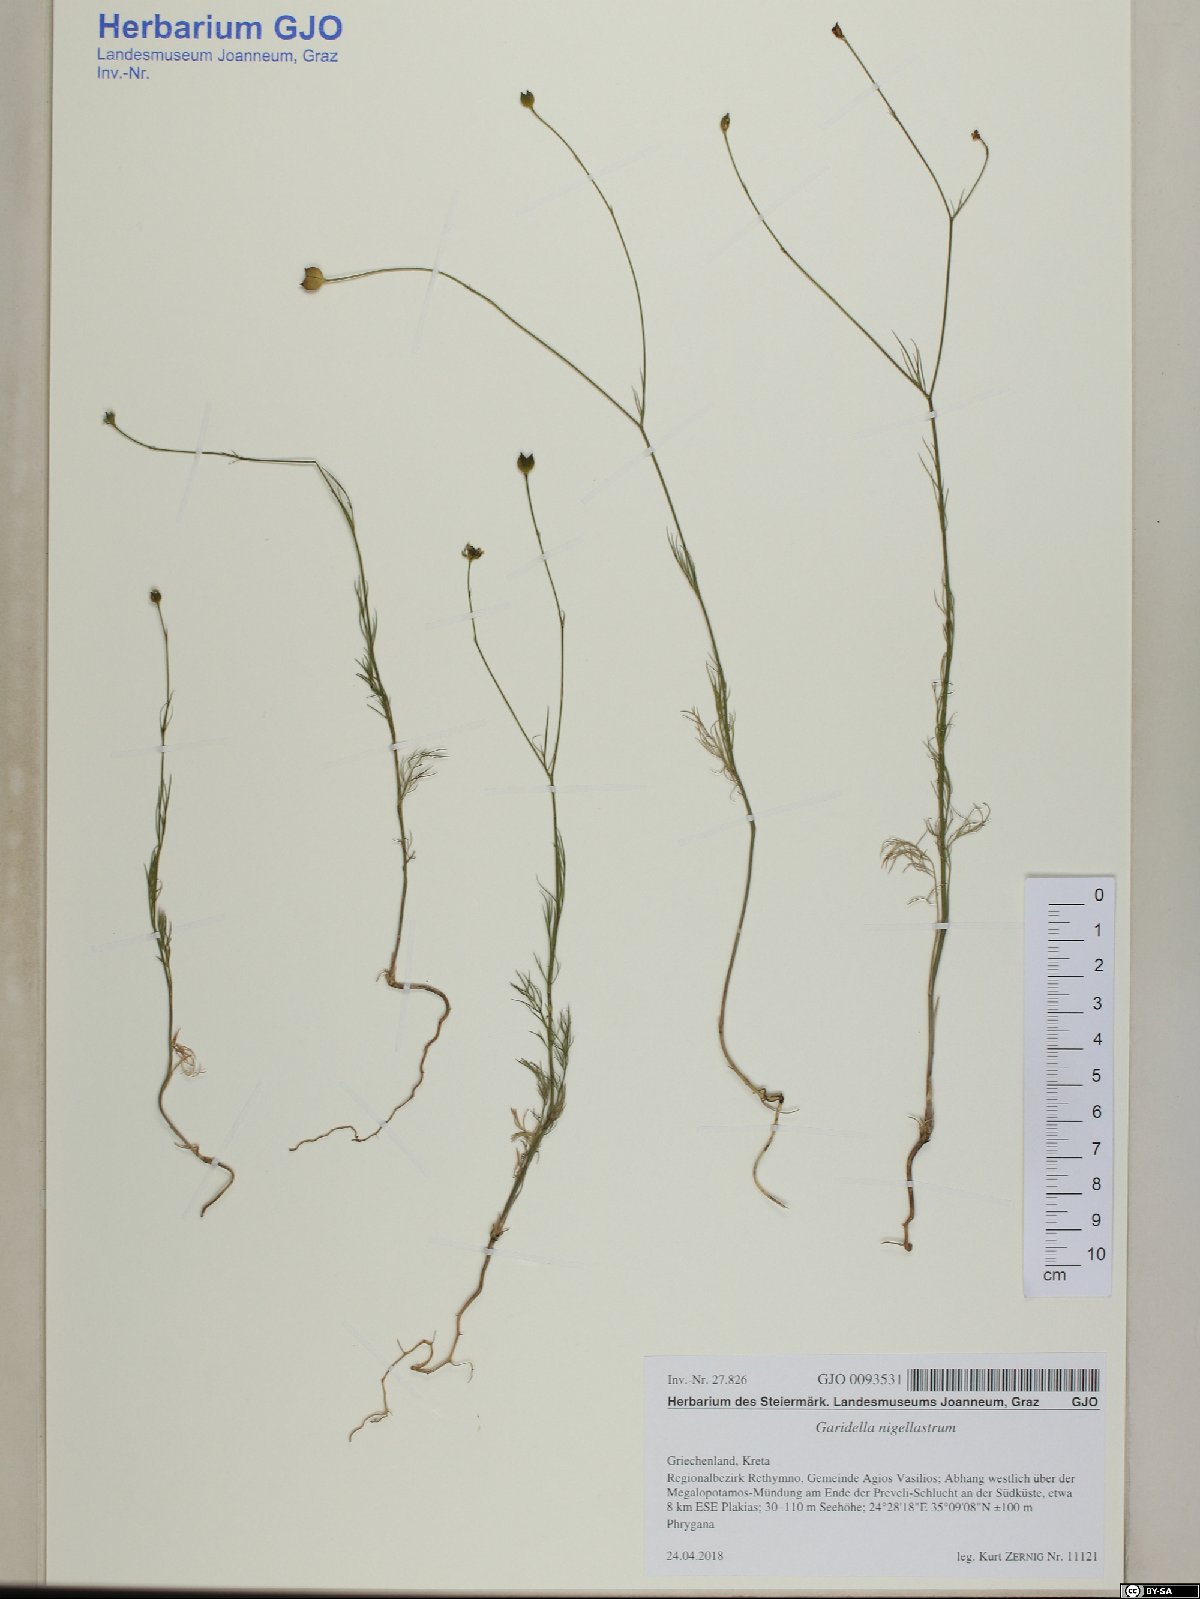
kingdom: Plantae
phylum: Tracheophyta
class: Magnoliopsida
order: Ranunculales
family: Ranunculaceae
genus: Garidella
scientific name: Garidella nigellastrum
